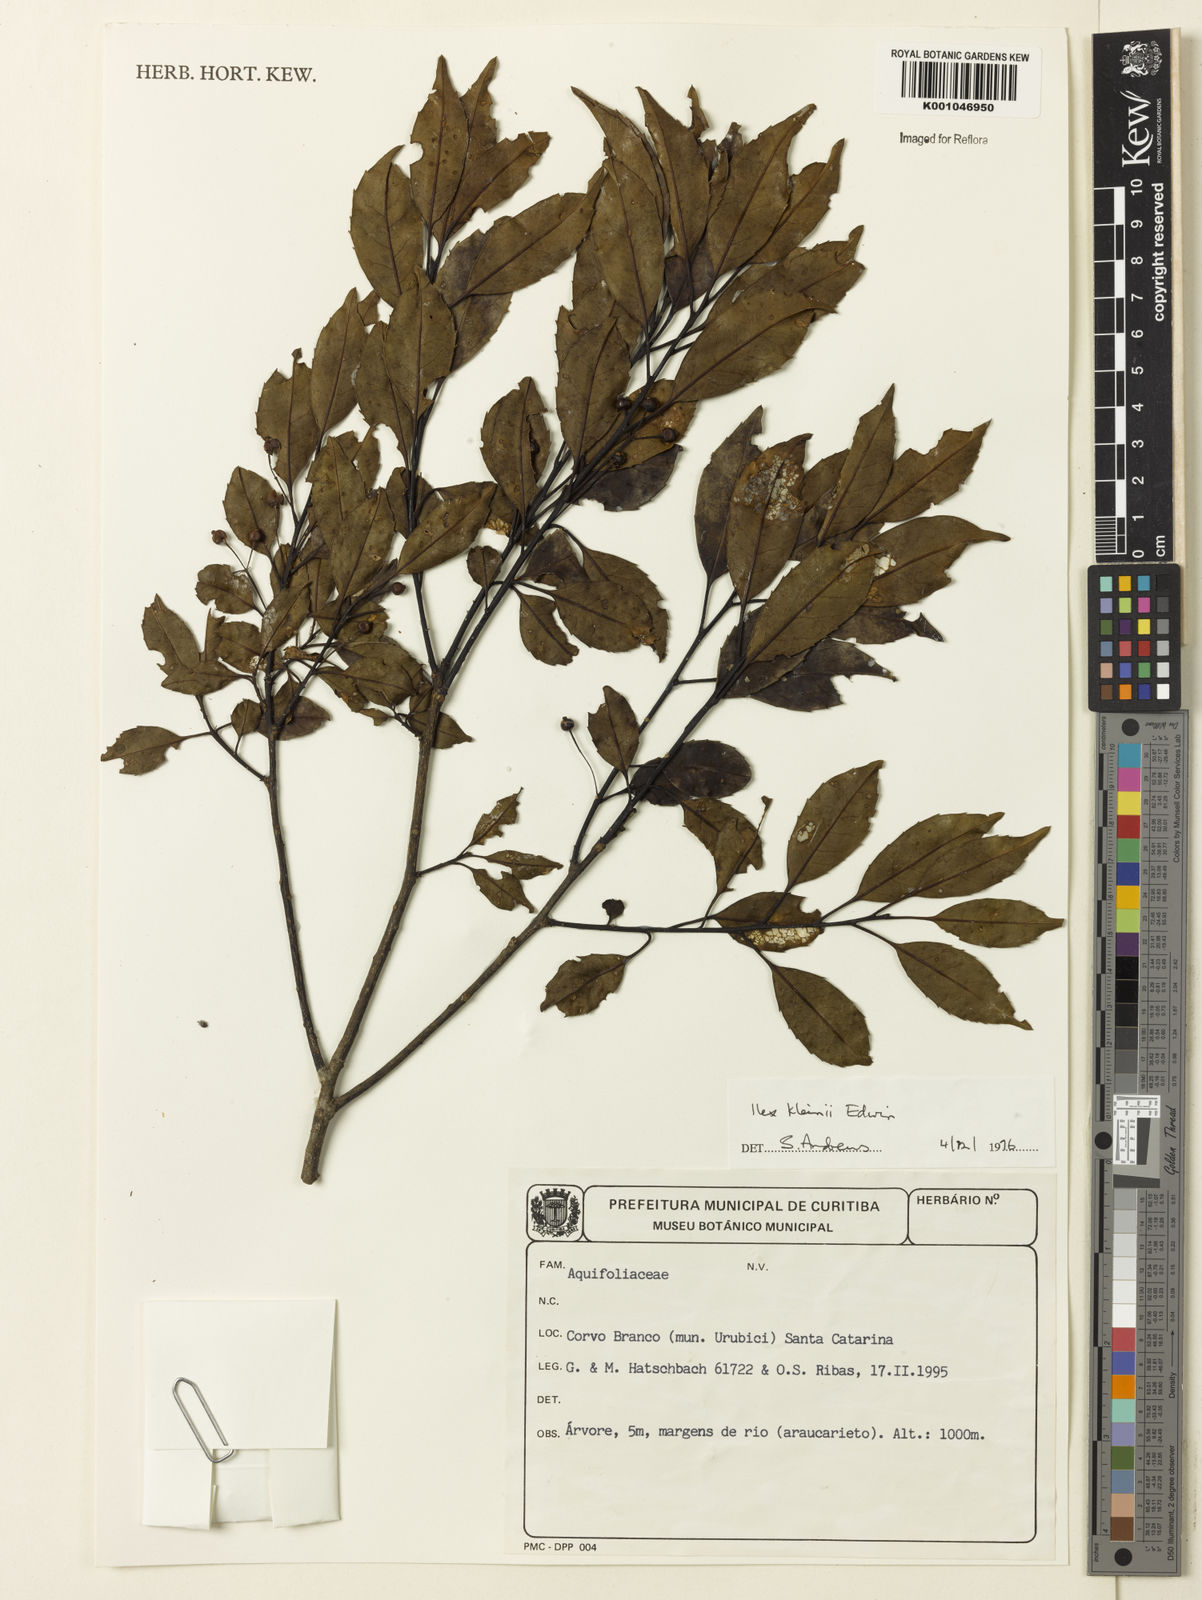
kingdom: Plantae
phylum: Tracheophyta
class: Magnoliopsida
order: Aquifoliales
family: Aquifoliaceae
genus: Ilex
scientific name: Ilex taubertiana
